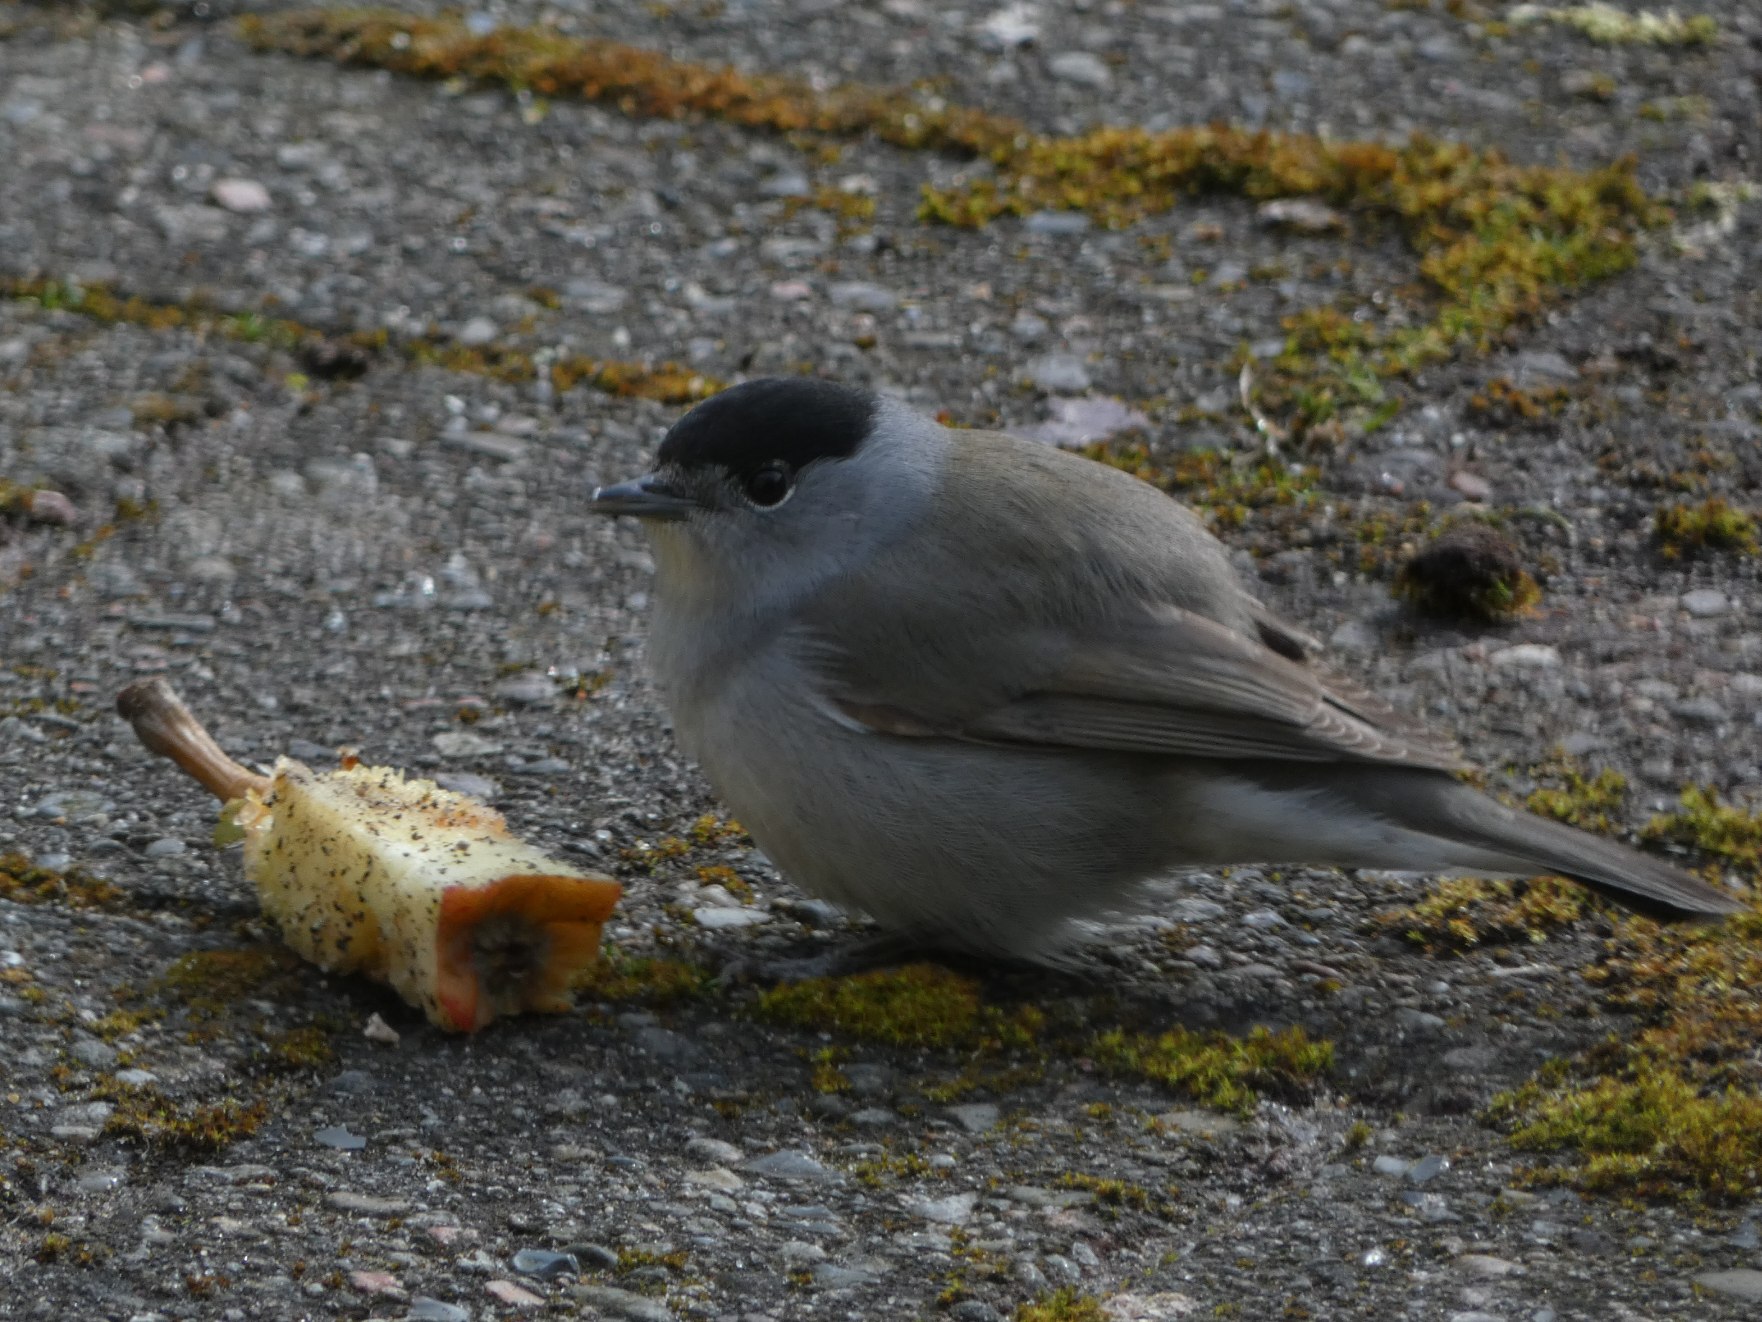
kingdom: Animalia
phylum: Chordata
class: Aves
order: Passeriformes
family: Sylviidae
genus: Sylvia
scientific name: Sylvia atricapilla
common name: Munk
